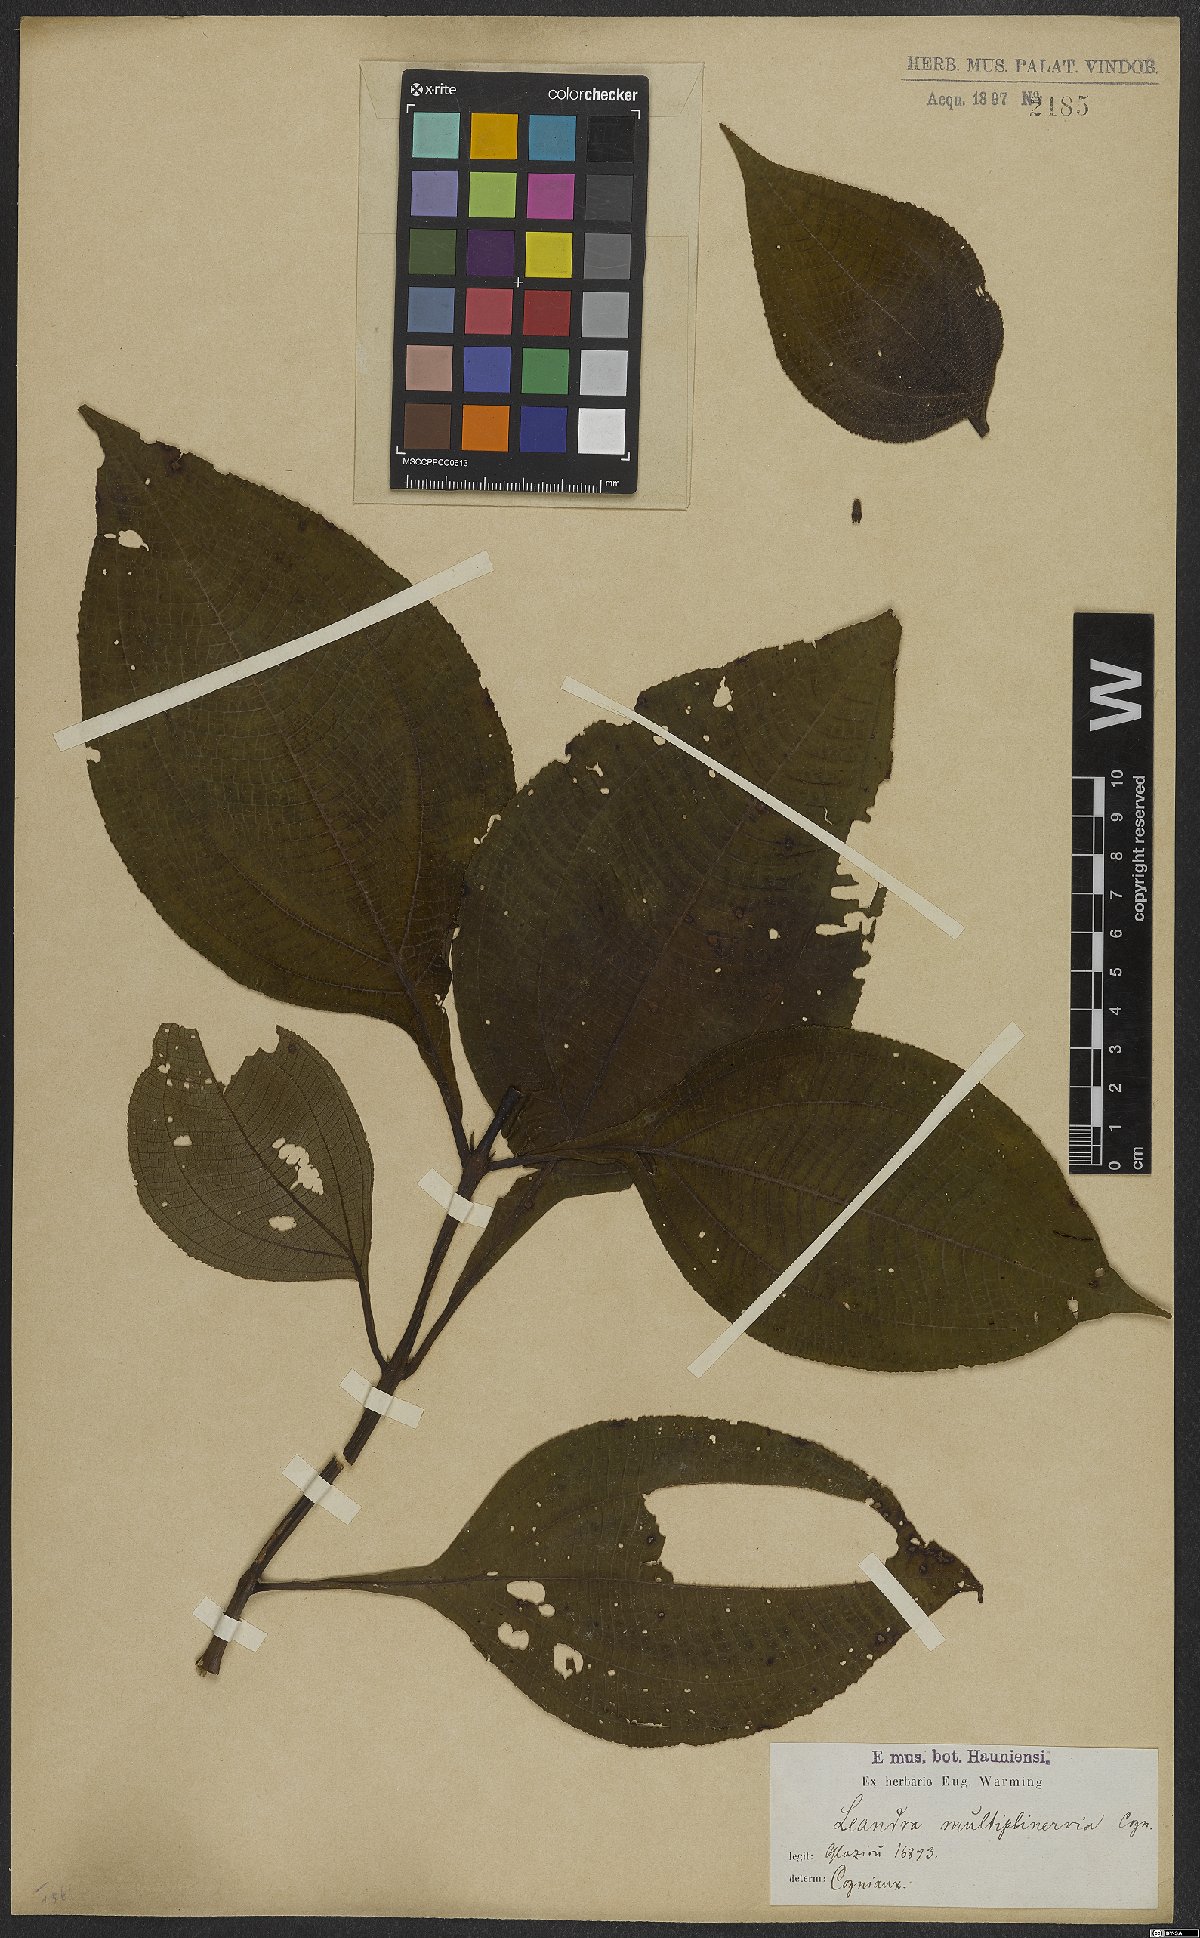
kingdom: Plantae
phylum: Tracheophyta
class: Magnoliopsida
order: Myrtales
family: Melastomataceae
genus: Miconia
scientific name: Miconia oocarpa
